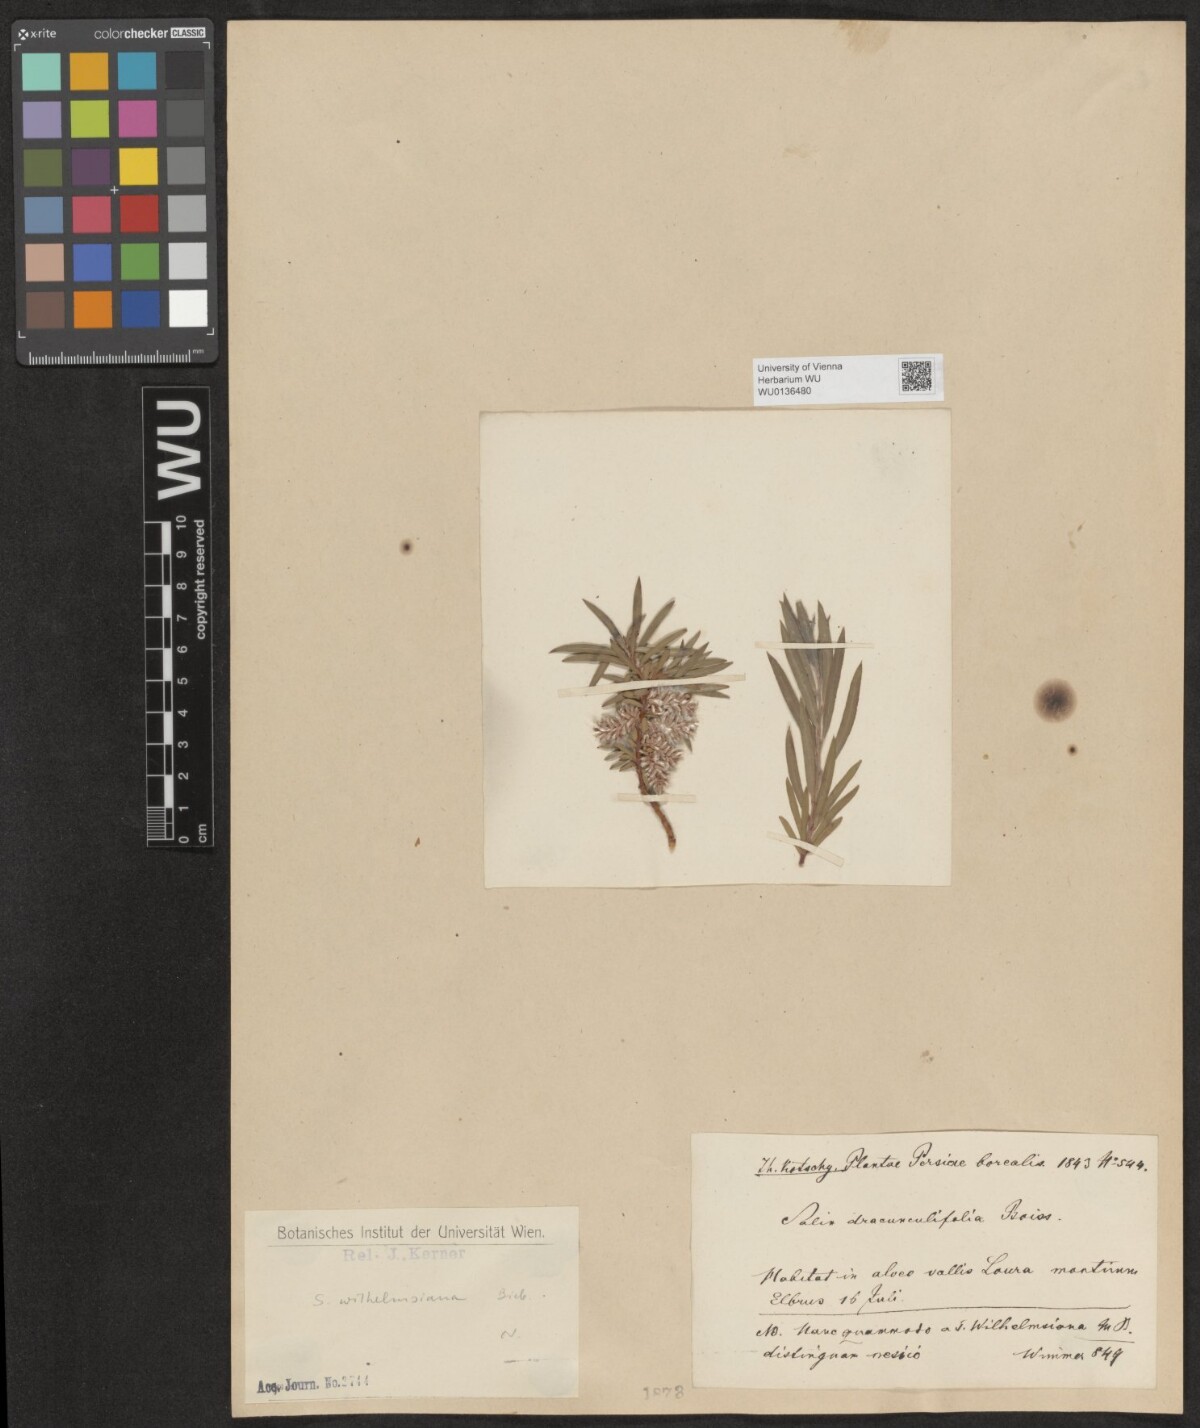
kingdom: Plantae
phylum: Tracheophyta
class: Magnoliopsida
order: Malpighiales
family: Salicaceae
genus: Salix
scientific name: Salix wilhelmsiana
